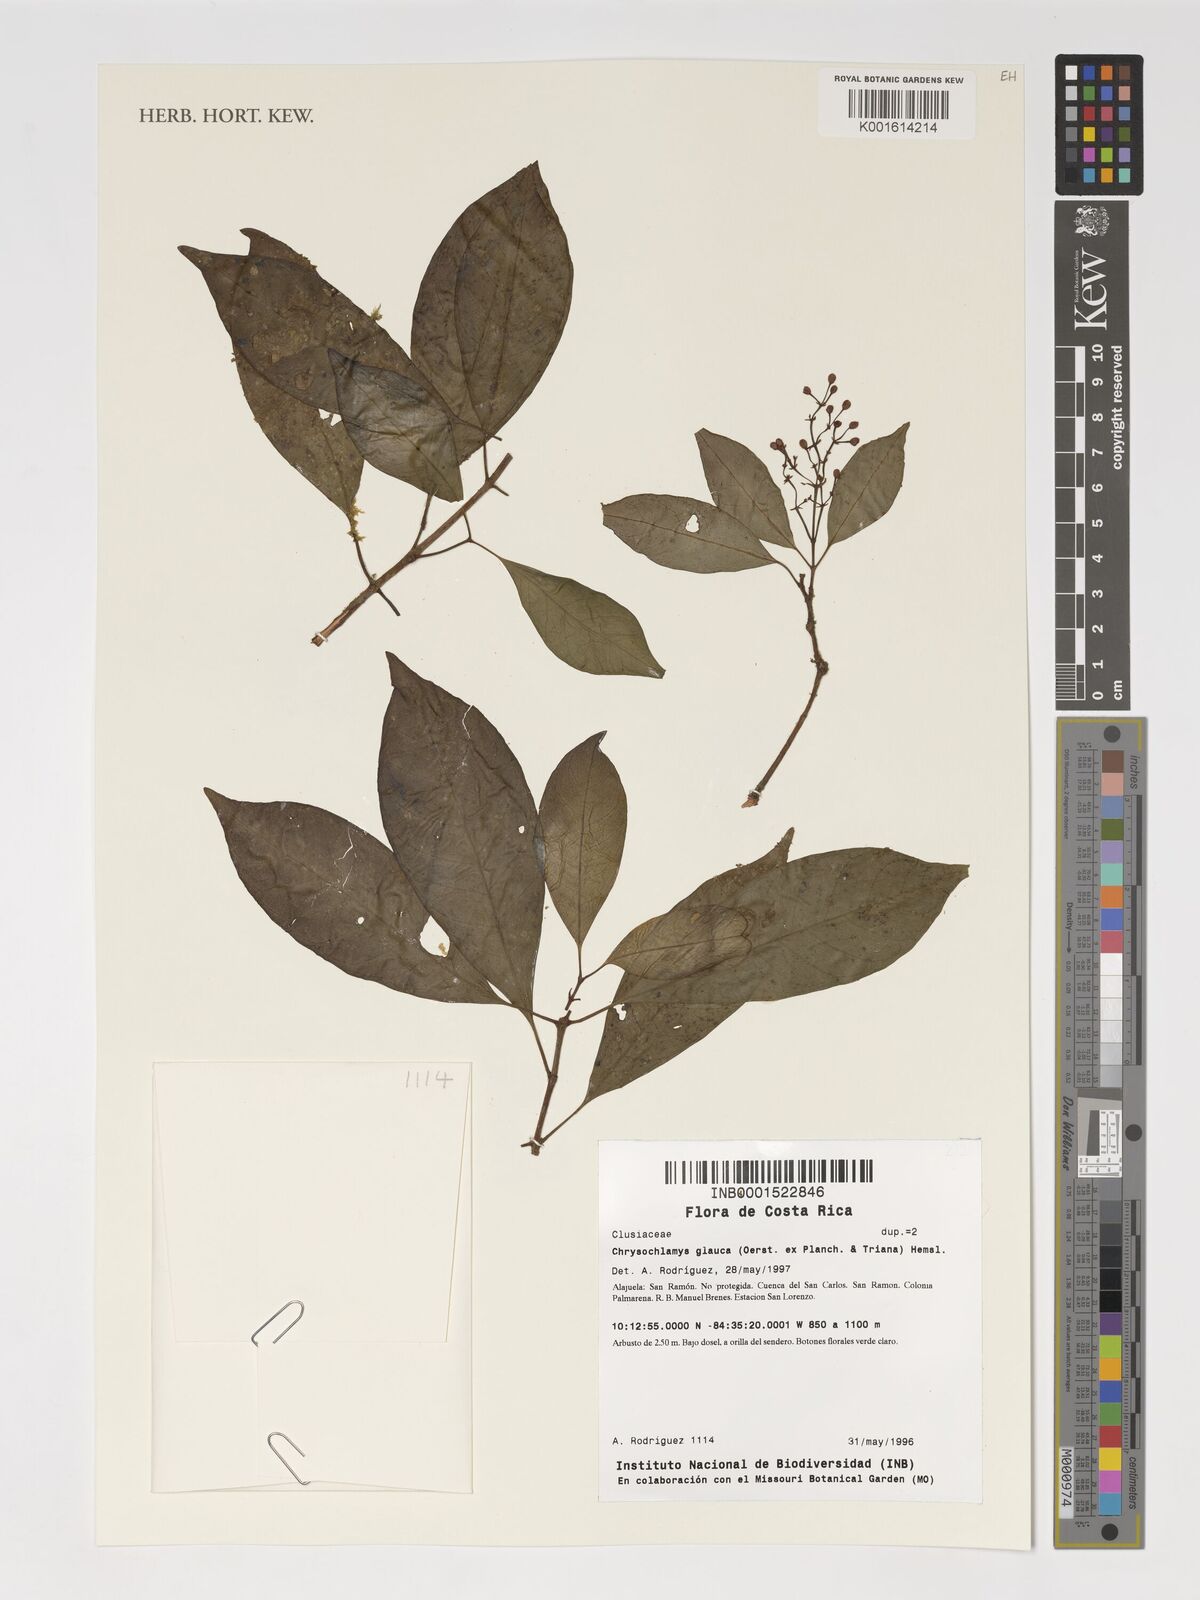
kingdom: Plantae
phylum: Tracheophyta
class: Magnoliopsida
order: Malpighiales
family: Clusiaceae
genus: Chrysochlamys
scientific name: Chrysochlamys glauca
